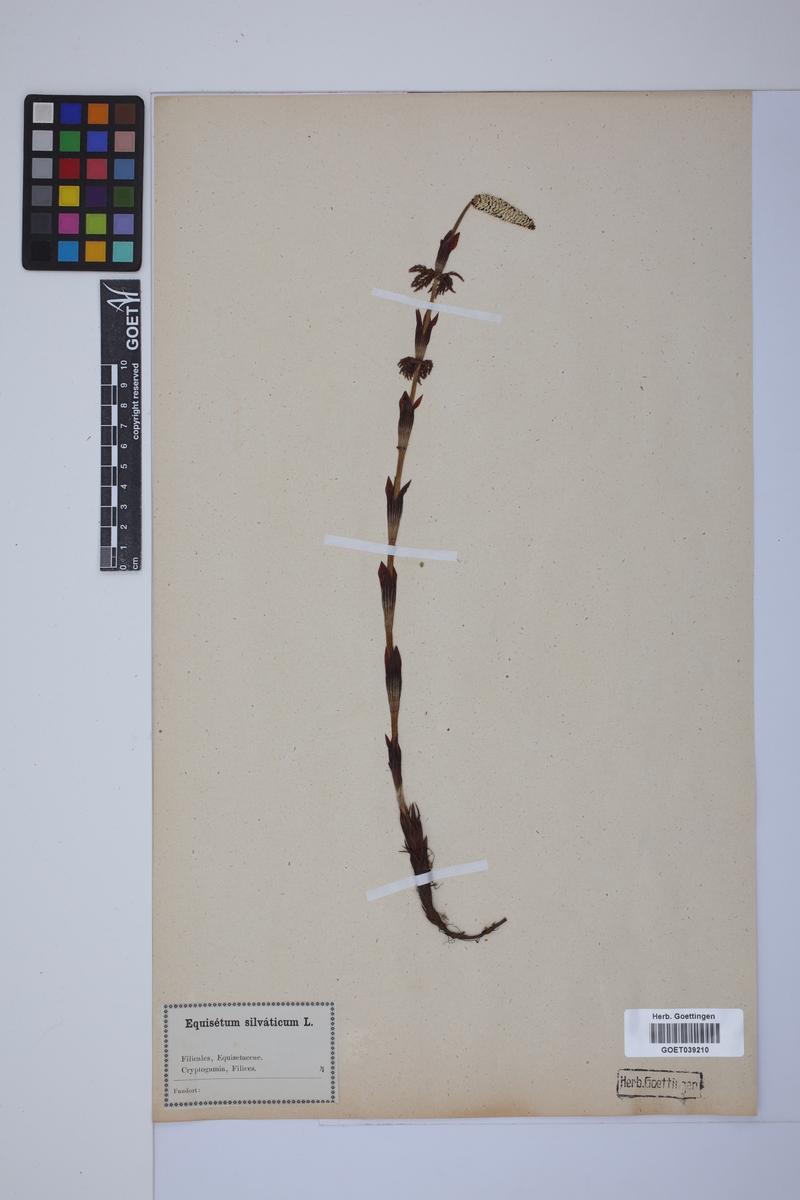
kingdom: Plantae
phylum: Tracheophyta
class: Polypodiopsida
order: Equisetales
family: Equisetaceae
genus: Equisetum
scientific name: Equisetum sylvaticum
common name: Wood horsetail
